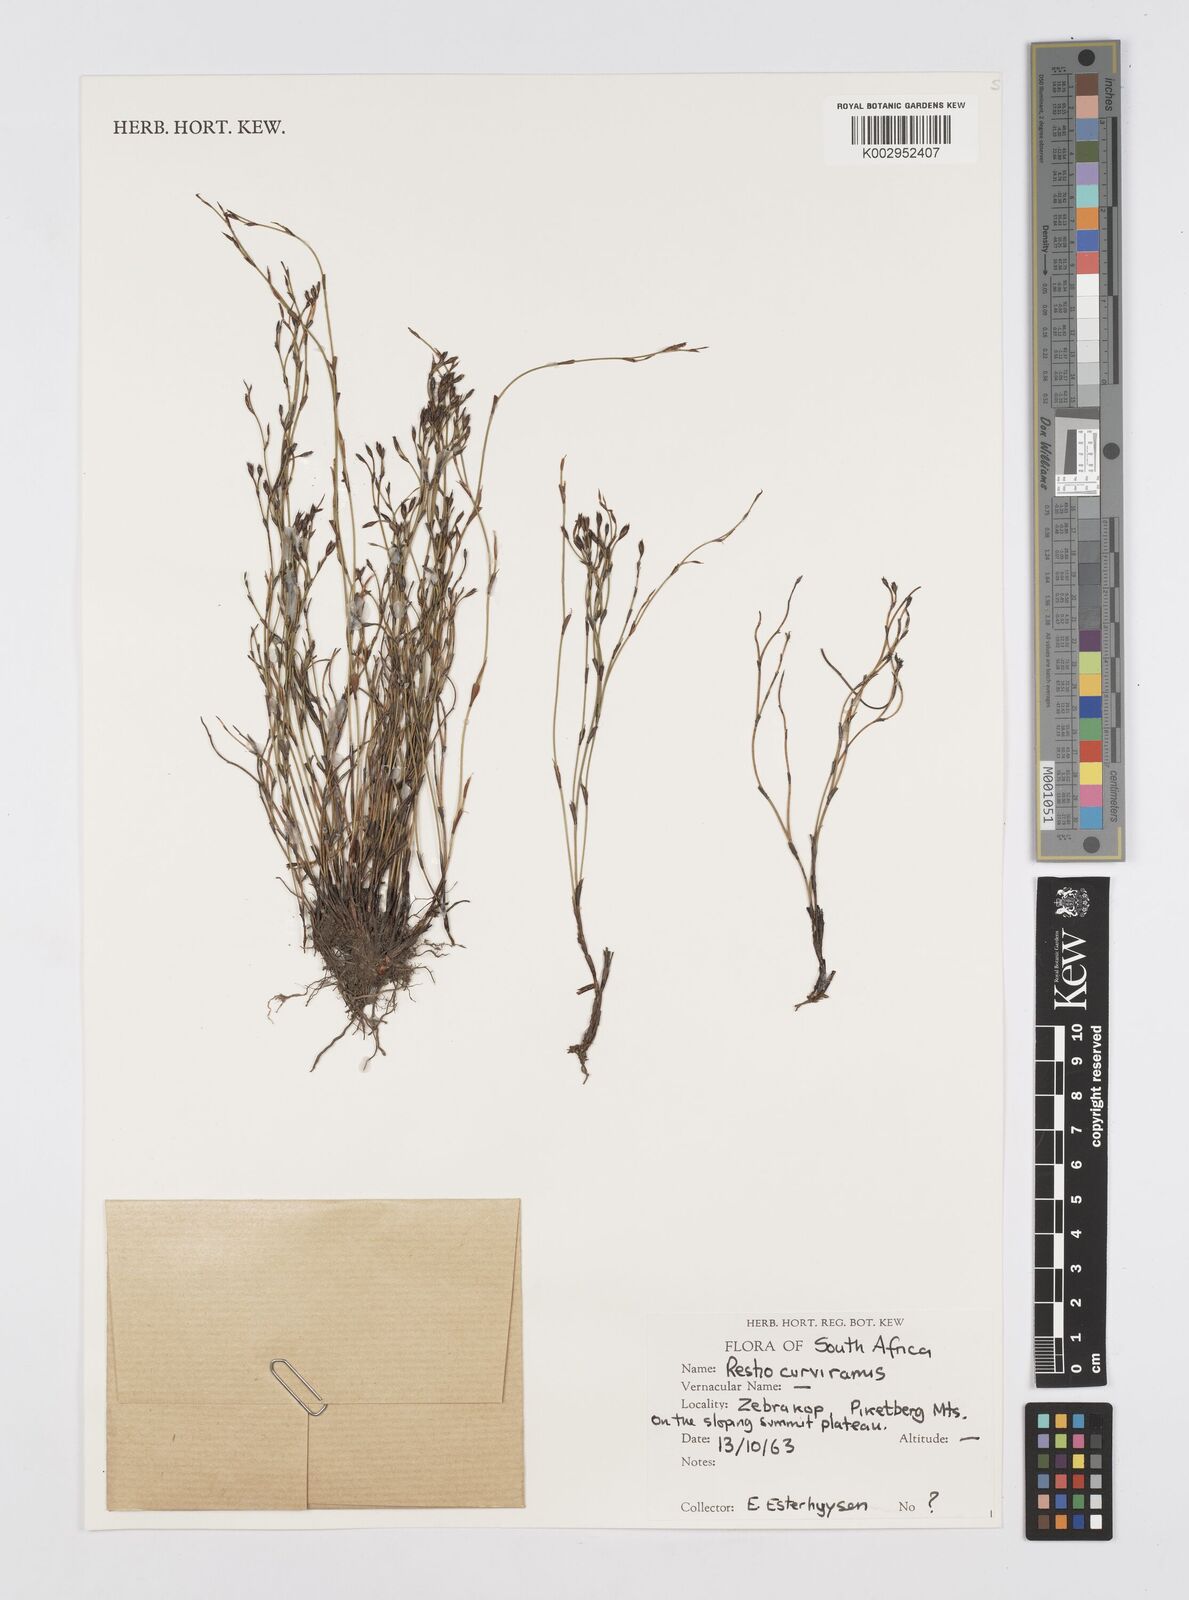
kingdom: Plantae
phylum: Tracheophyta
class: Liliopsida
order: Poales
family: Restionaceae
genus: Restio
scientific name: Restio curviramis
